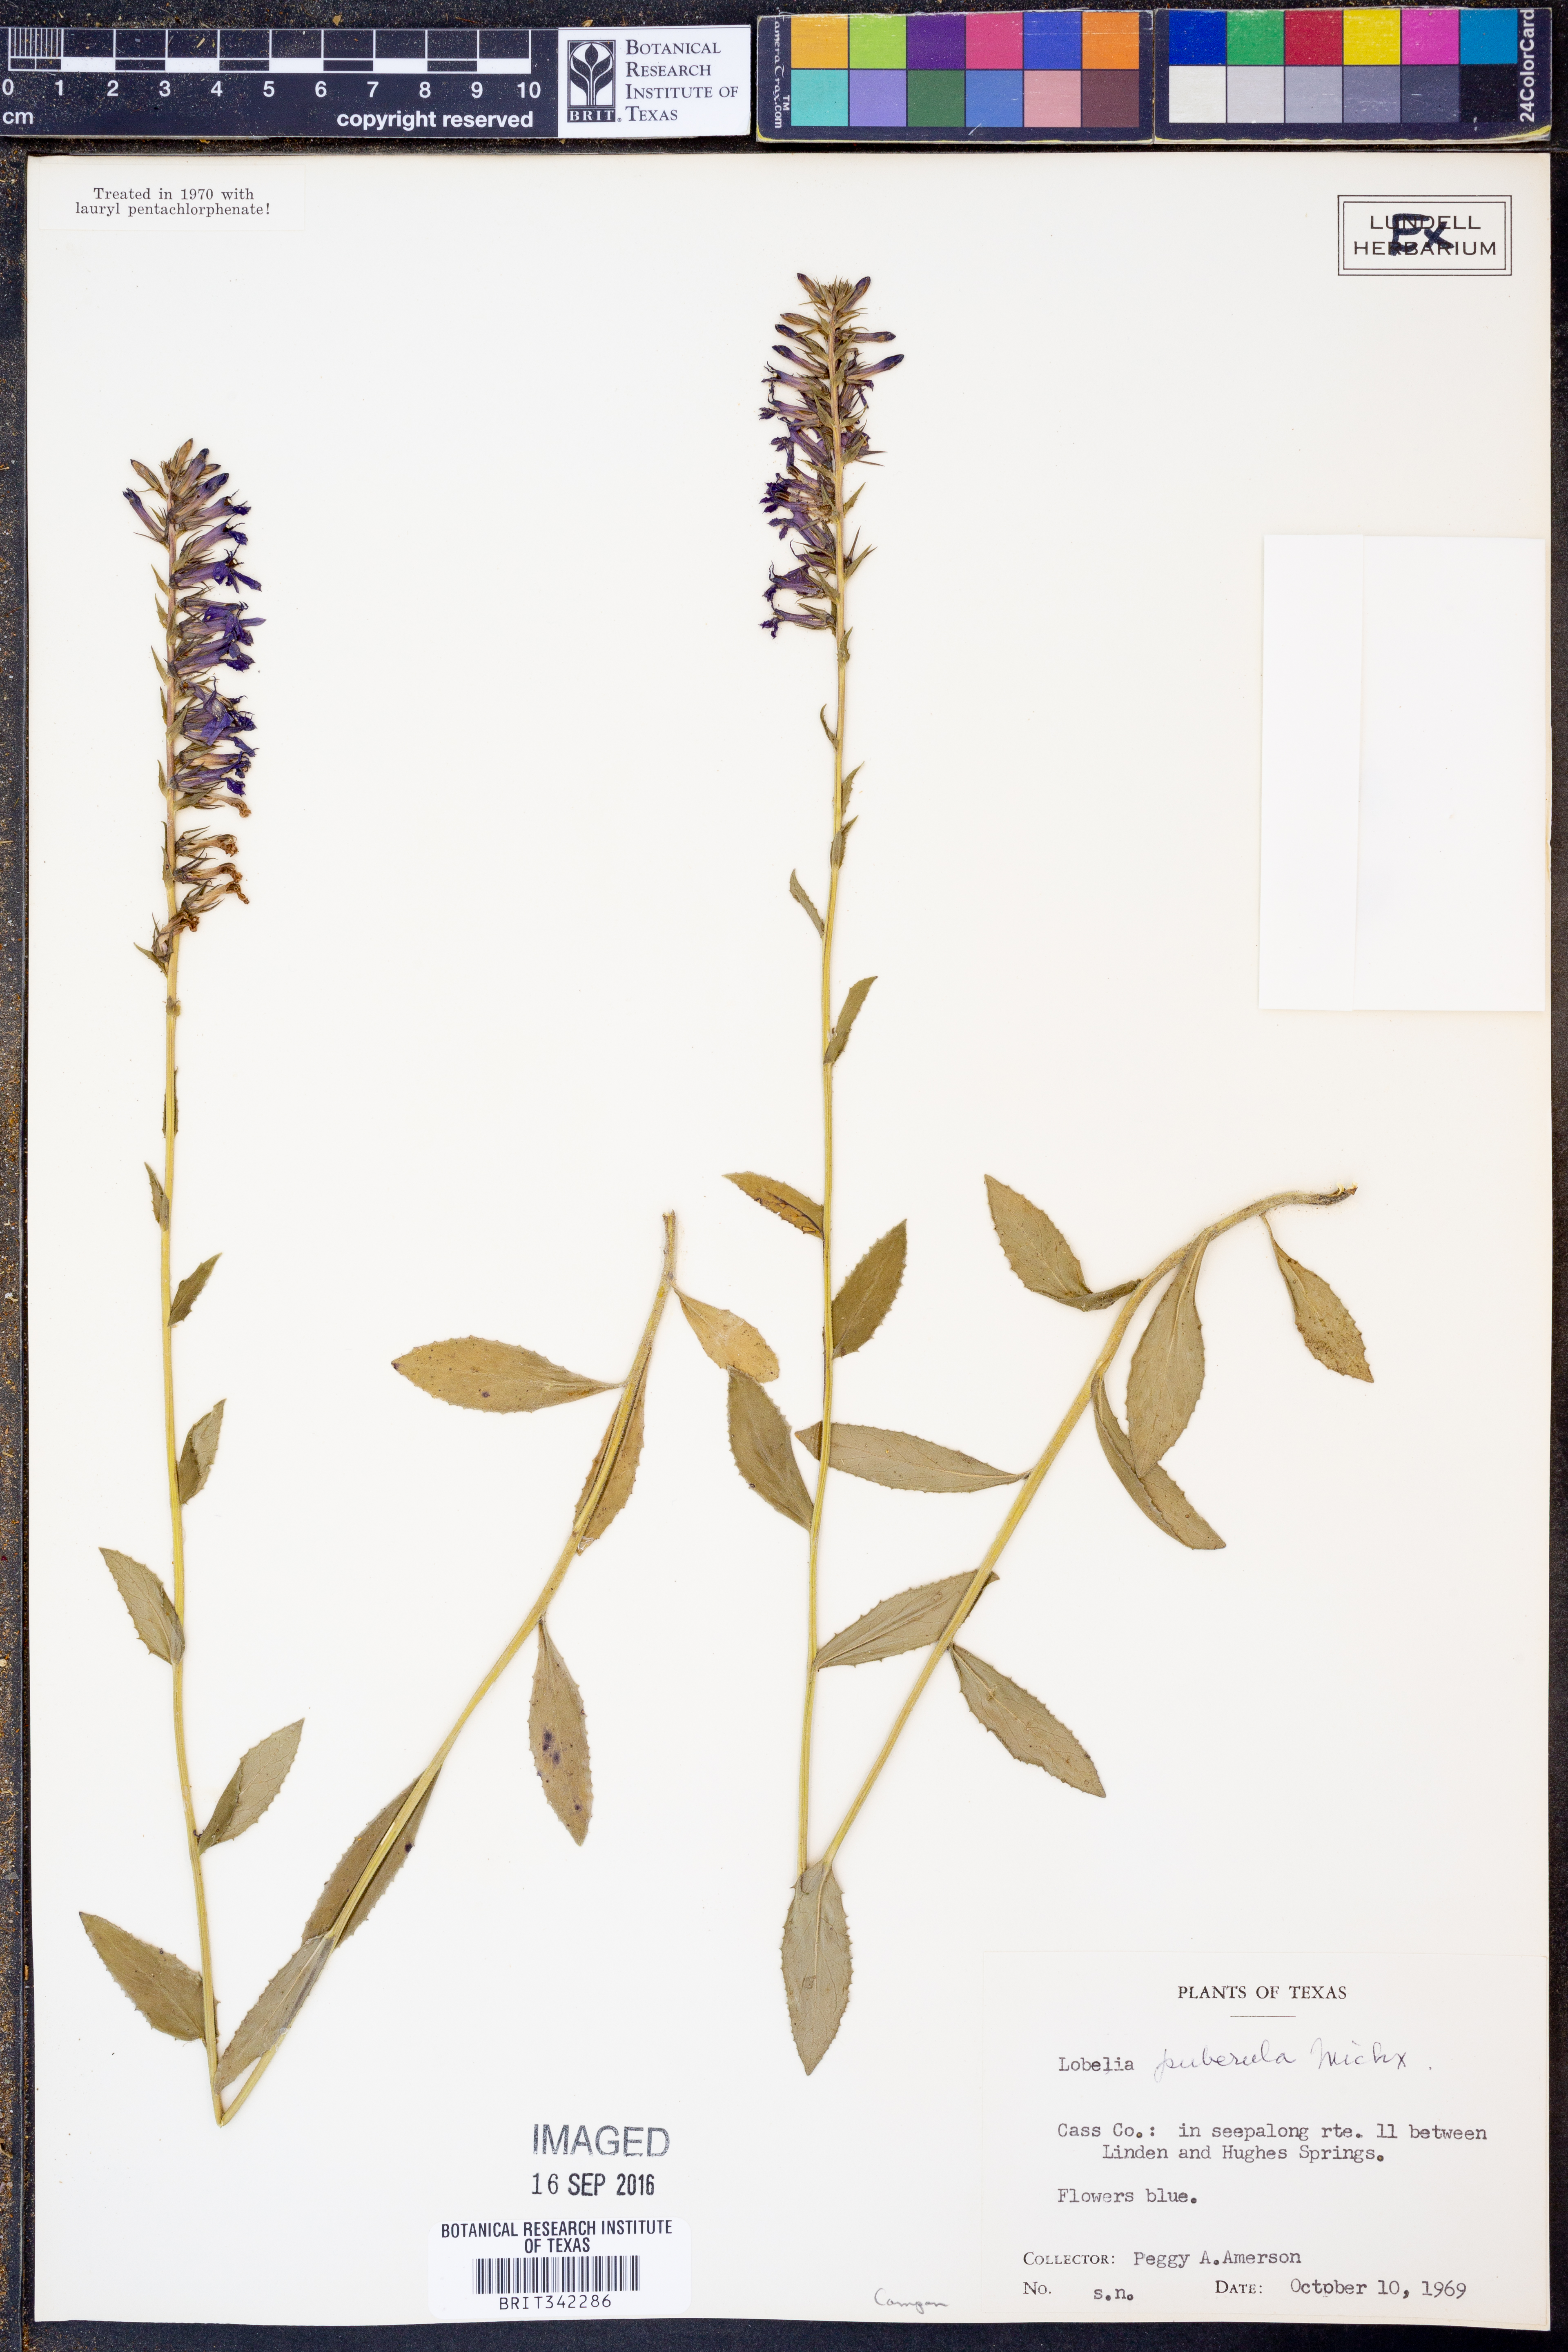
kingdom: Plantae
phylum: Tracheophyta
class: Magnoliopsida
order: Asterales
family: Campanulaceae
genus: Lobelia
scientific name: Lobelia puberula
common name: Purple dewdrop
